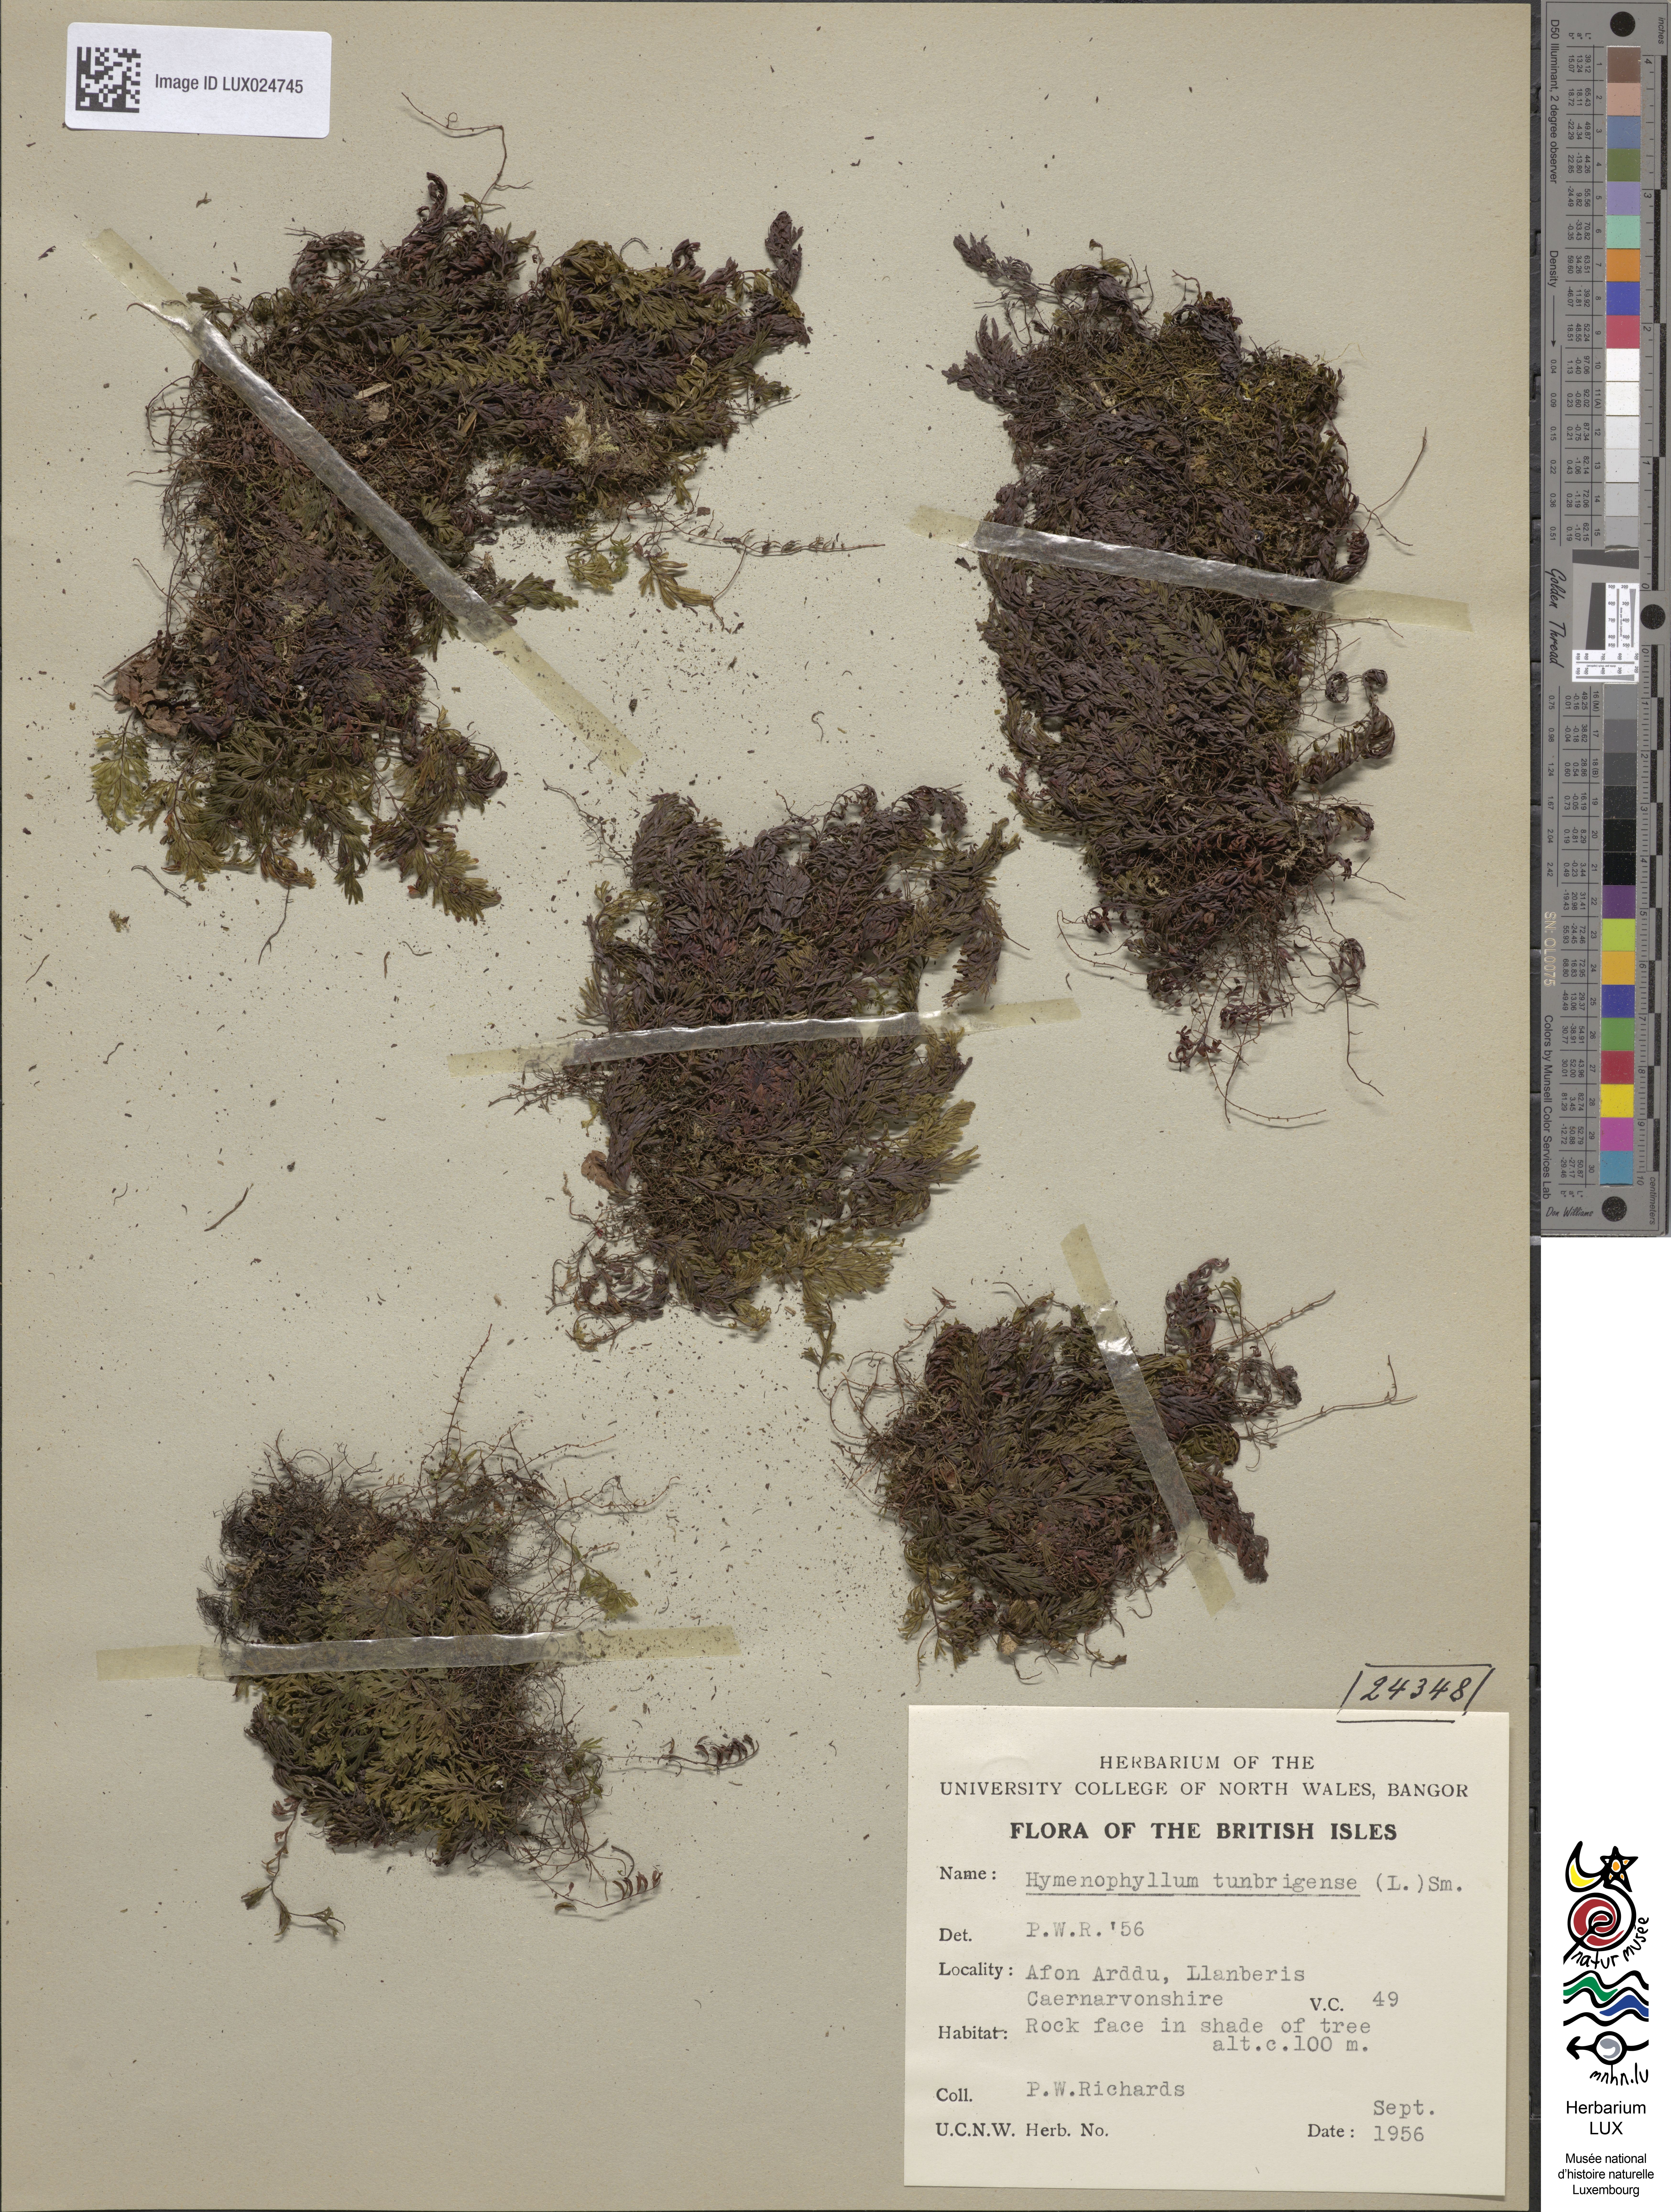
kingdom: Plantae
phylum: Tracheophyta
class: Polypodiopsida
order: Hymenophyllales
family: Hymenophyllaceae
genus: Hymenophyllum
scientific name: Hymenophyllum tunbrigense
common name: Tunbridge filmy fern
